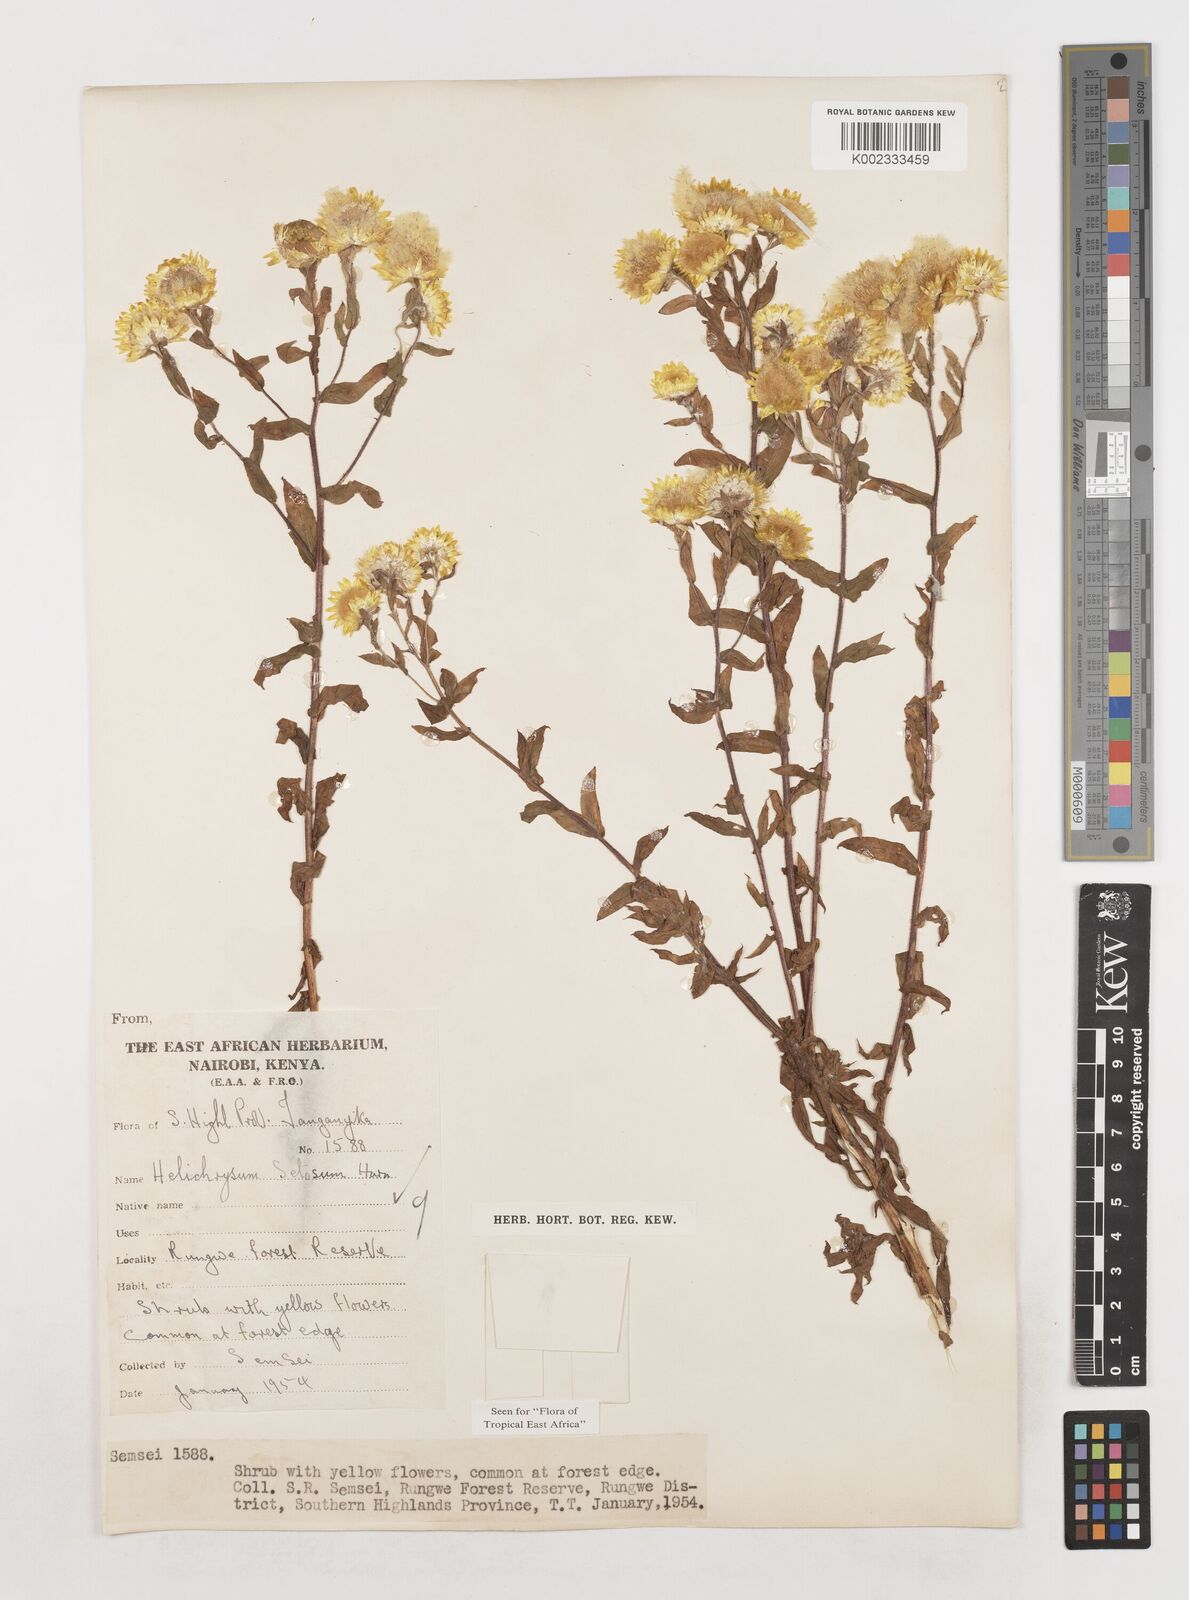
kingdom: Plantae
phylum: Tracheophyta
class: Magnoliopsida
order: Asterales
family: Asteraceae
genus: Helichrysum
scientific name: Helichrysum setosum
